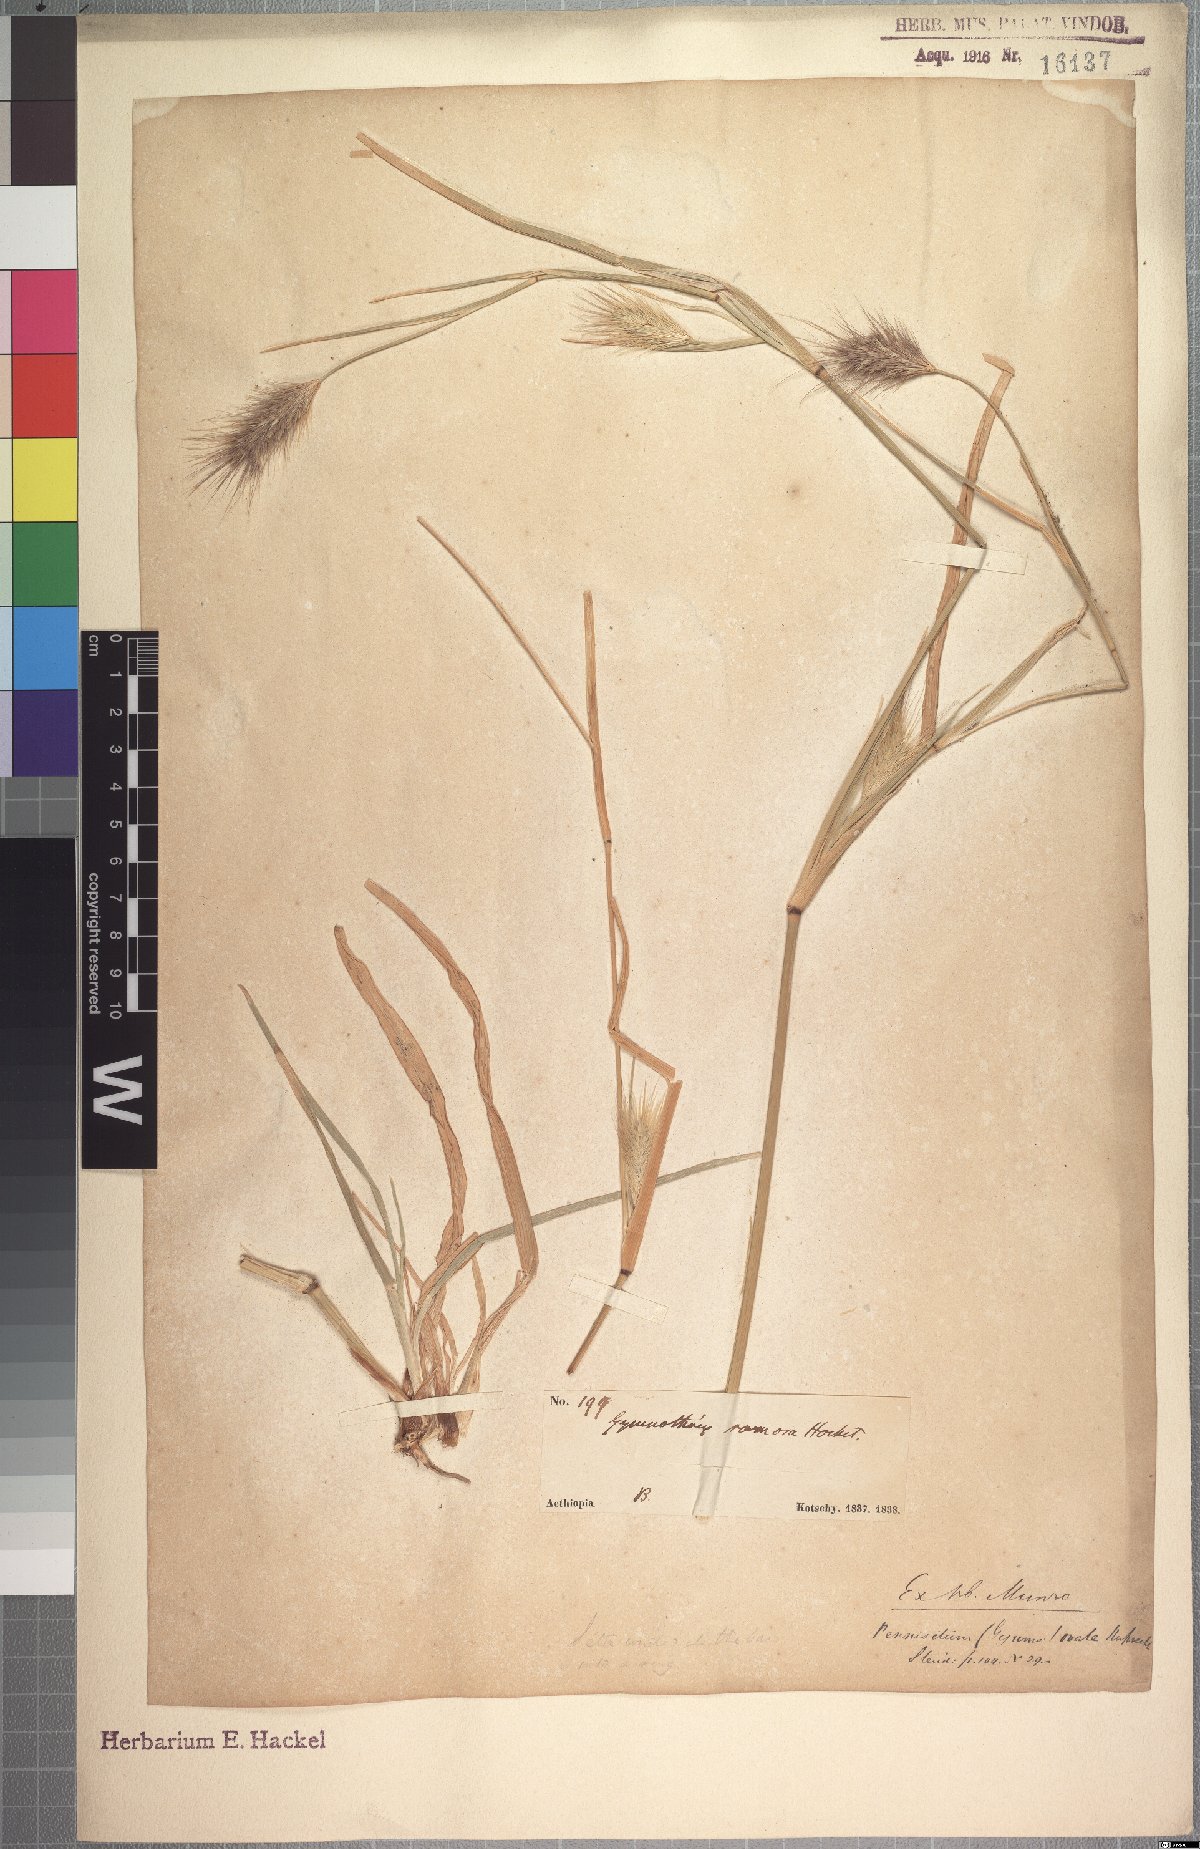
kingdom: Plantae
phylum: Tracheophyta
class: Liliopsida
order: Poales
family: Poaceae
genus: Cenchrus
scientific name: Cenchrus ramosus
